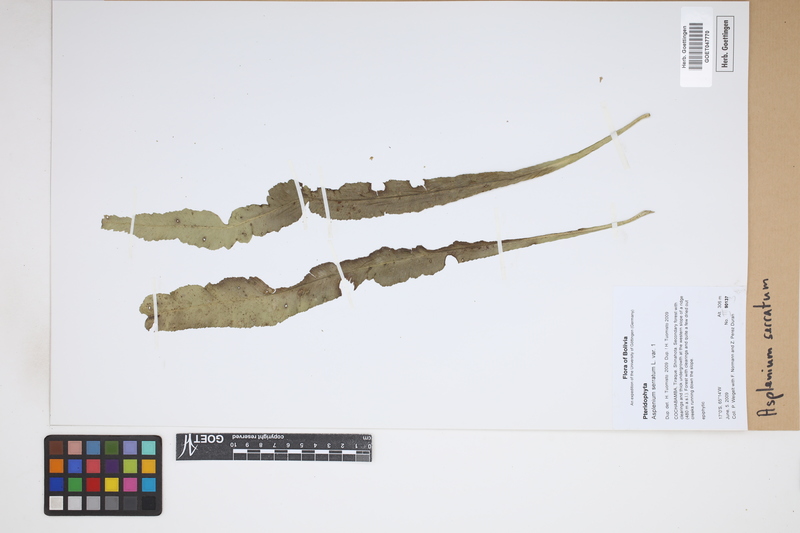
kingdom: Plantae
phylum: Tracheophyta
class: Polypodiopsida
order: Polypodiales
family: Aspleniaceae
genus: Asplenium
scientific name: Asplenium serratum
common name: Wild birdnest fern
